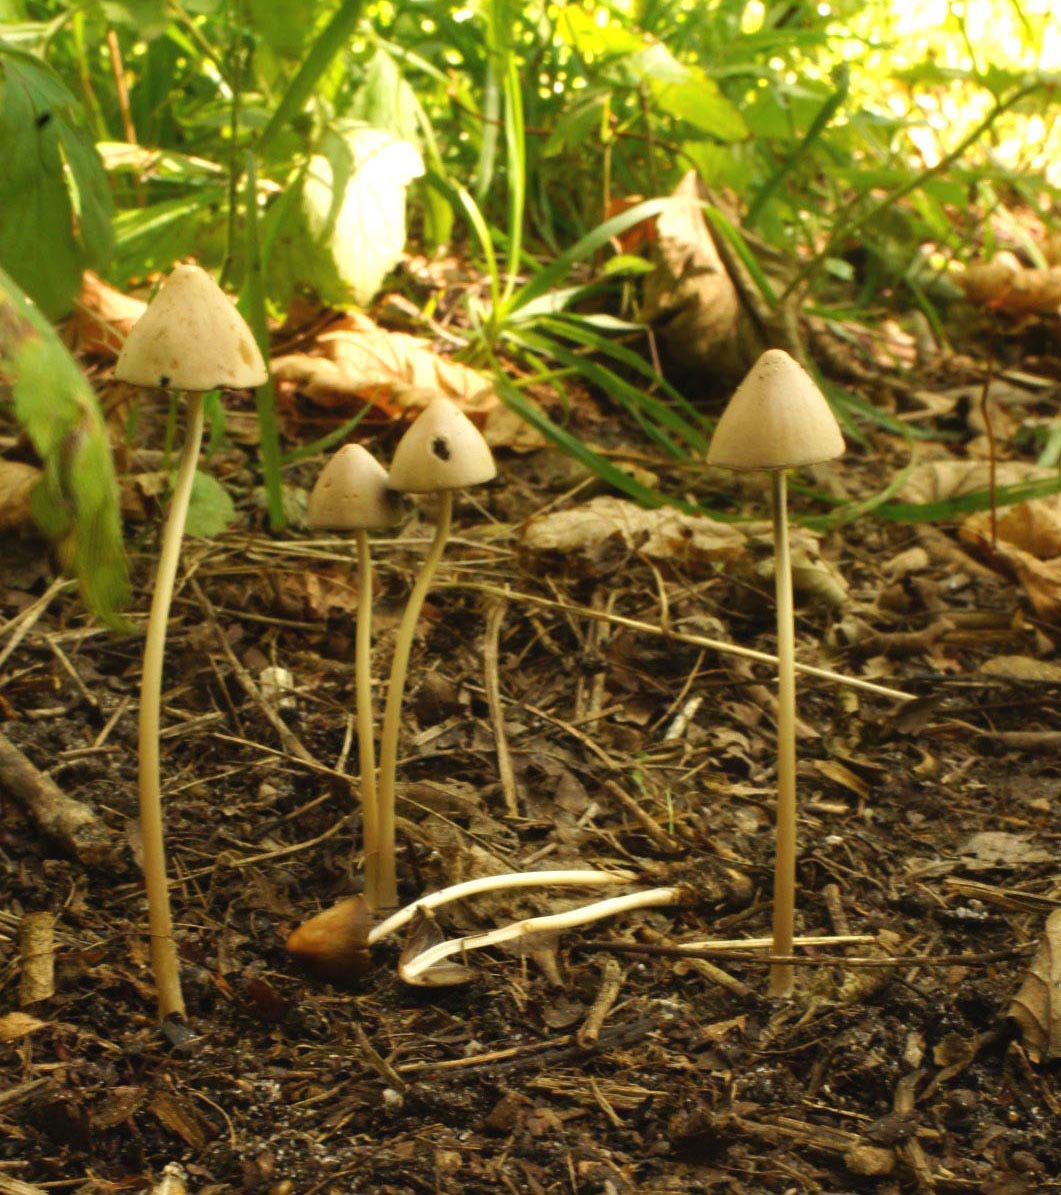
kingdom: Fungi
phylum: Basidiomycota
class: Agaricomycetes
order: Agaricales
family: Psathyrellaceae
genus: Parasola
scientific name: Parasola conopilea
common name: kegle-hjulhat
